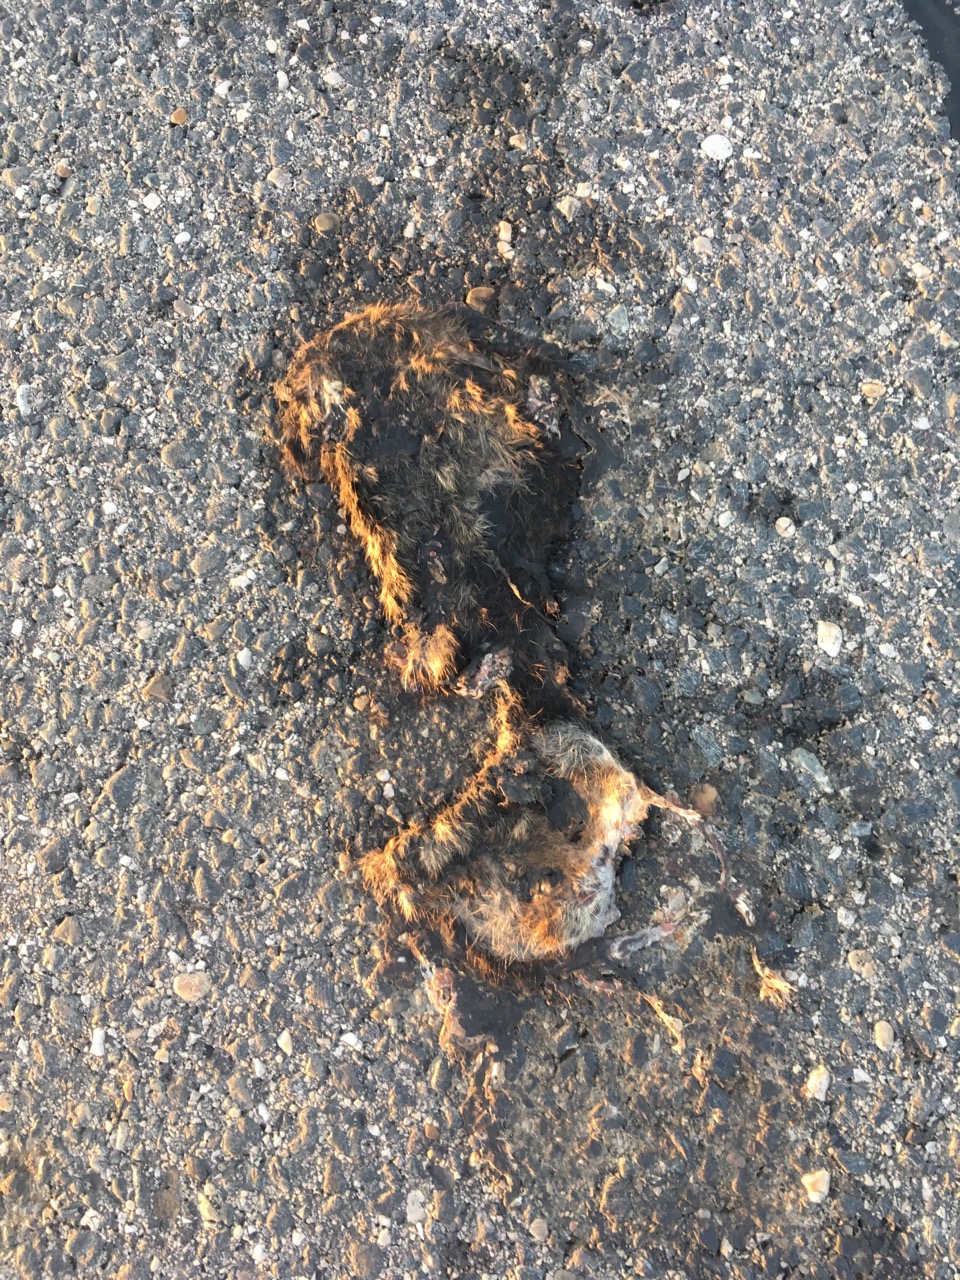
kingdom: Animalia
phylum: Chordata
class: Mammalia
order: Rodentia
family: Cricetidae
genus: Cricetus
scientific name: Cricetus cricetus
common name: Common hamster
